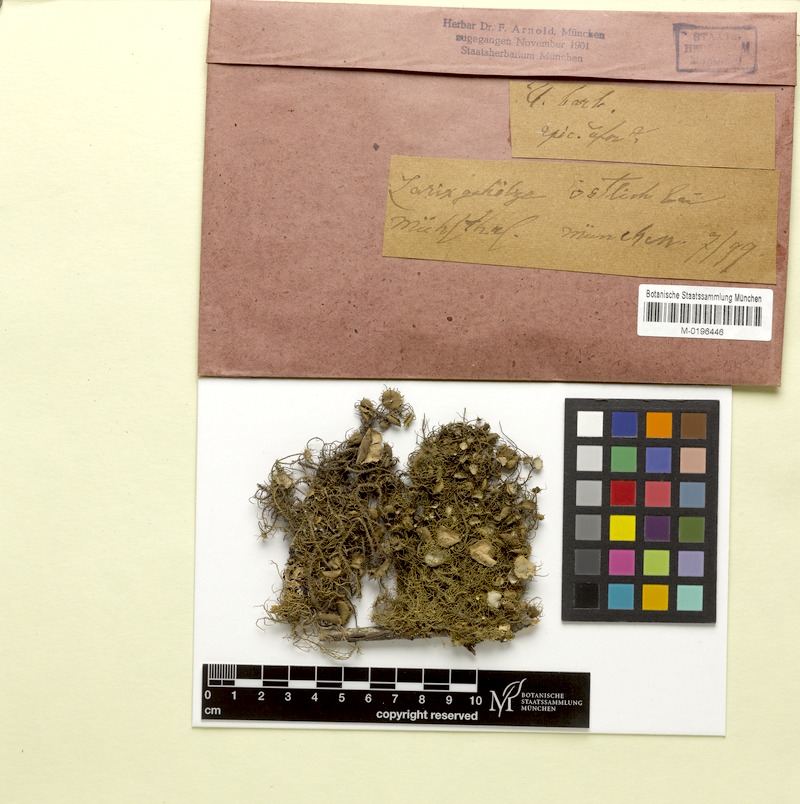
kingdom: Fungi
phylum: Ascomycota
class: Lecanoromycetes
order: Lecanorales
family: Parmeliaceae
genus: Usnea
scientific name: Usnea barbata
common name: Old man's beard lichen
